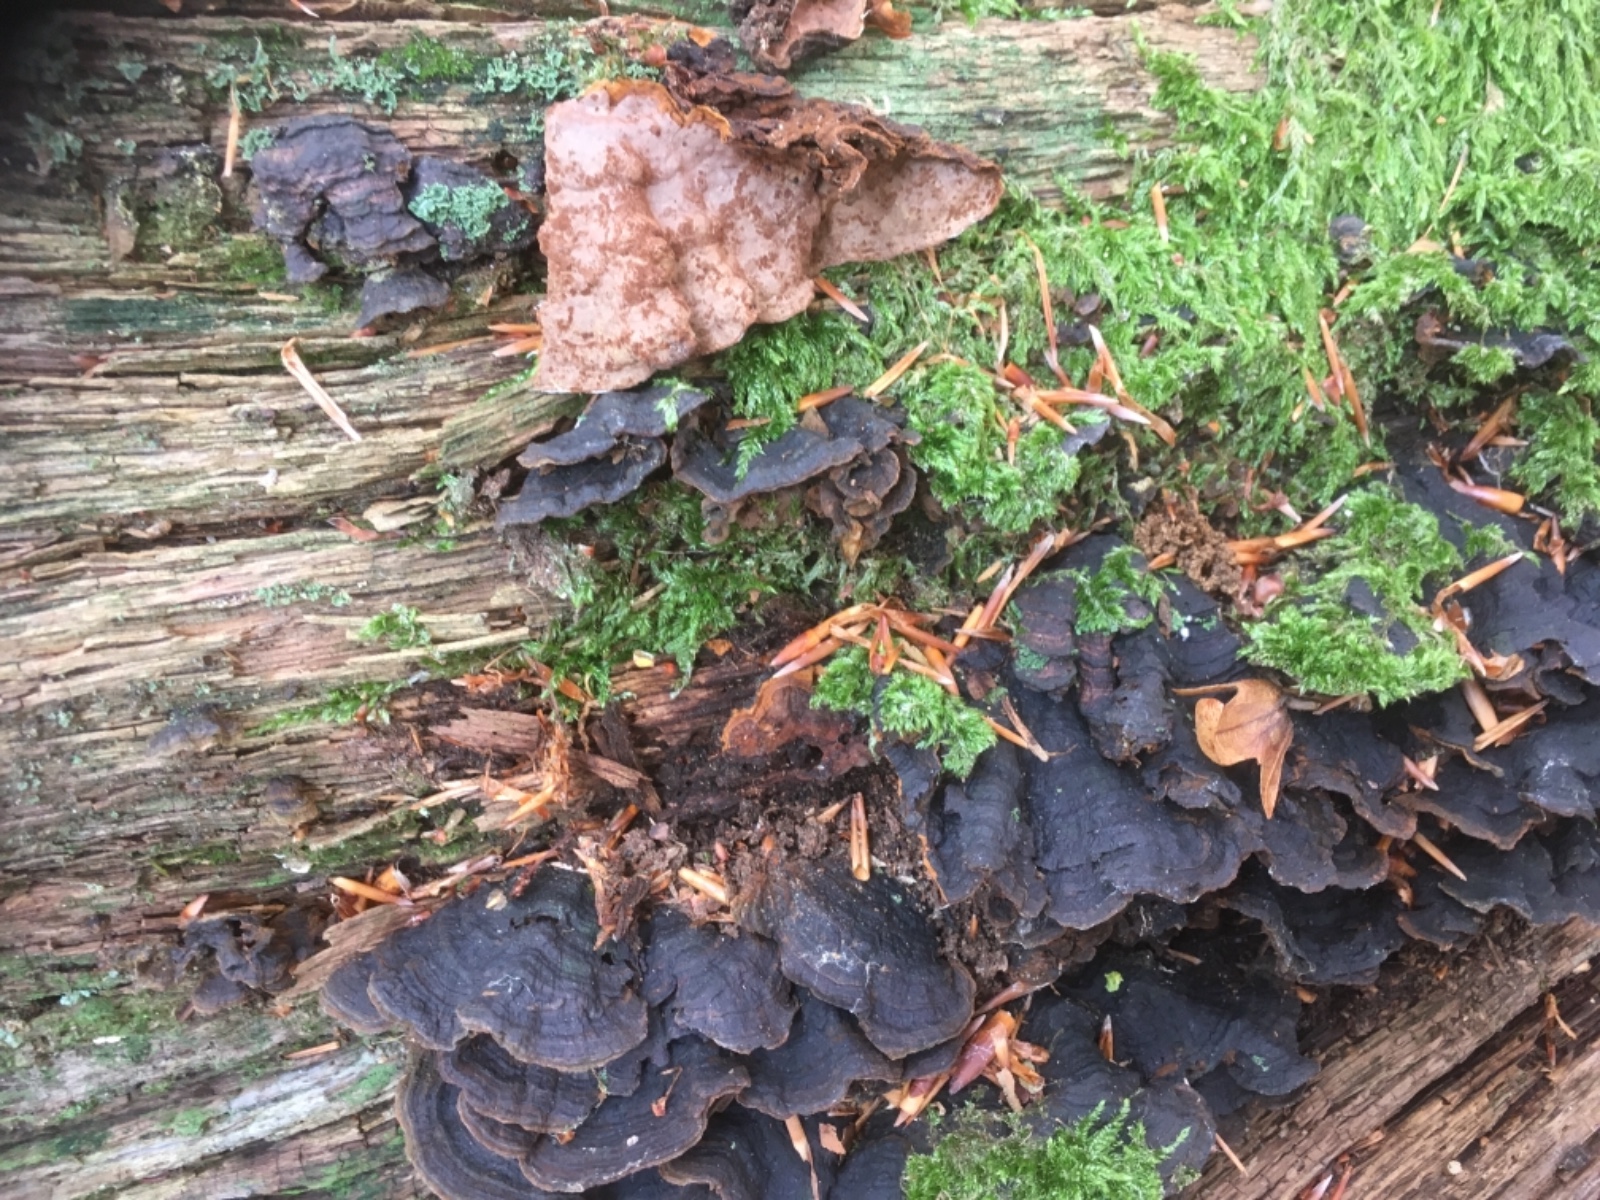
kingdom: Fungi
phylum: Basidiomycota
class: Agaricomycetes
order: Hymenochaetales
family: Hymenochaetaceae
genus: Hymenochaete
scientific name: Hymenochaete rubiginosa
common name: stiv ruslædersvamp
